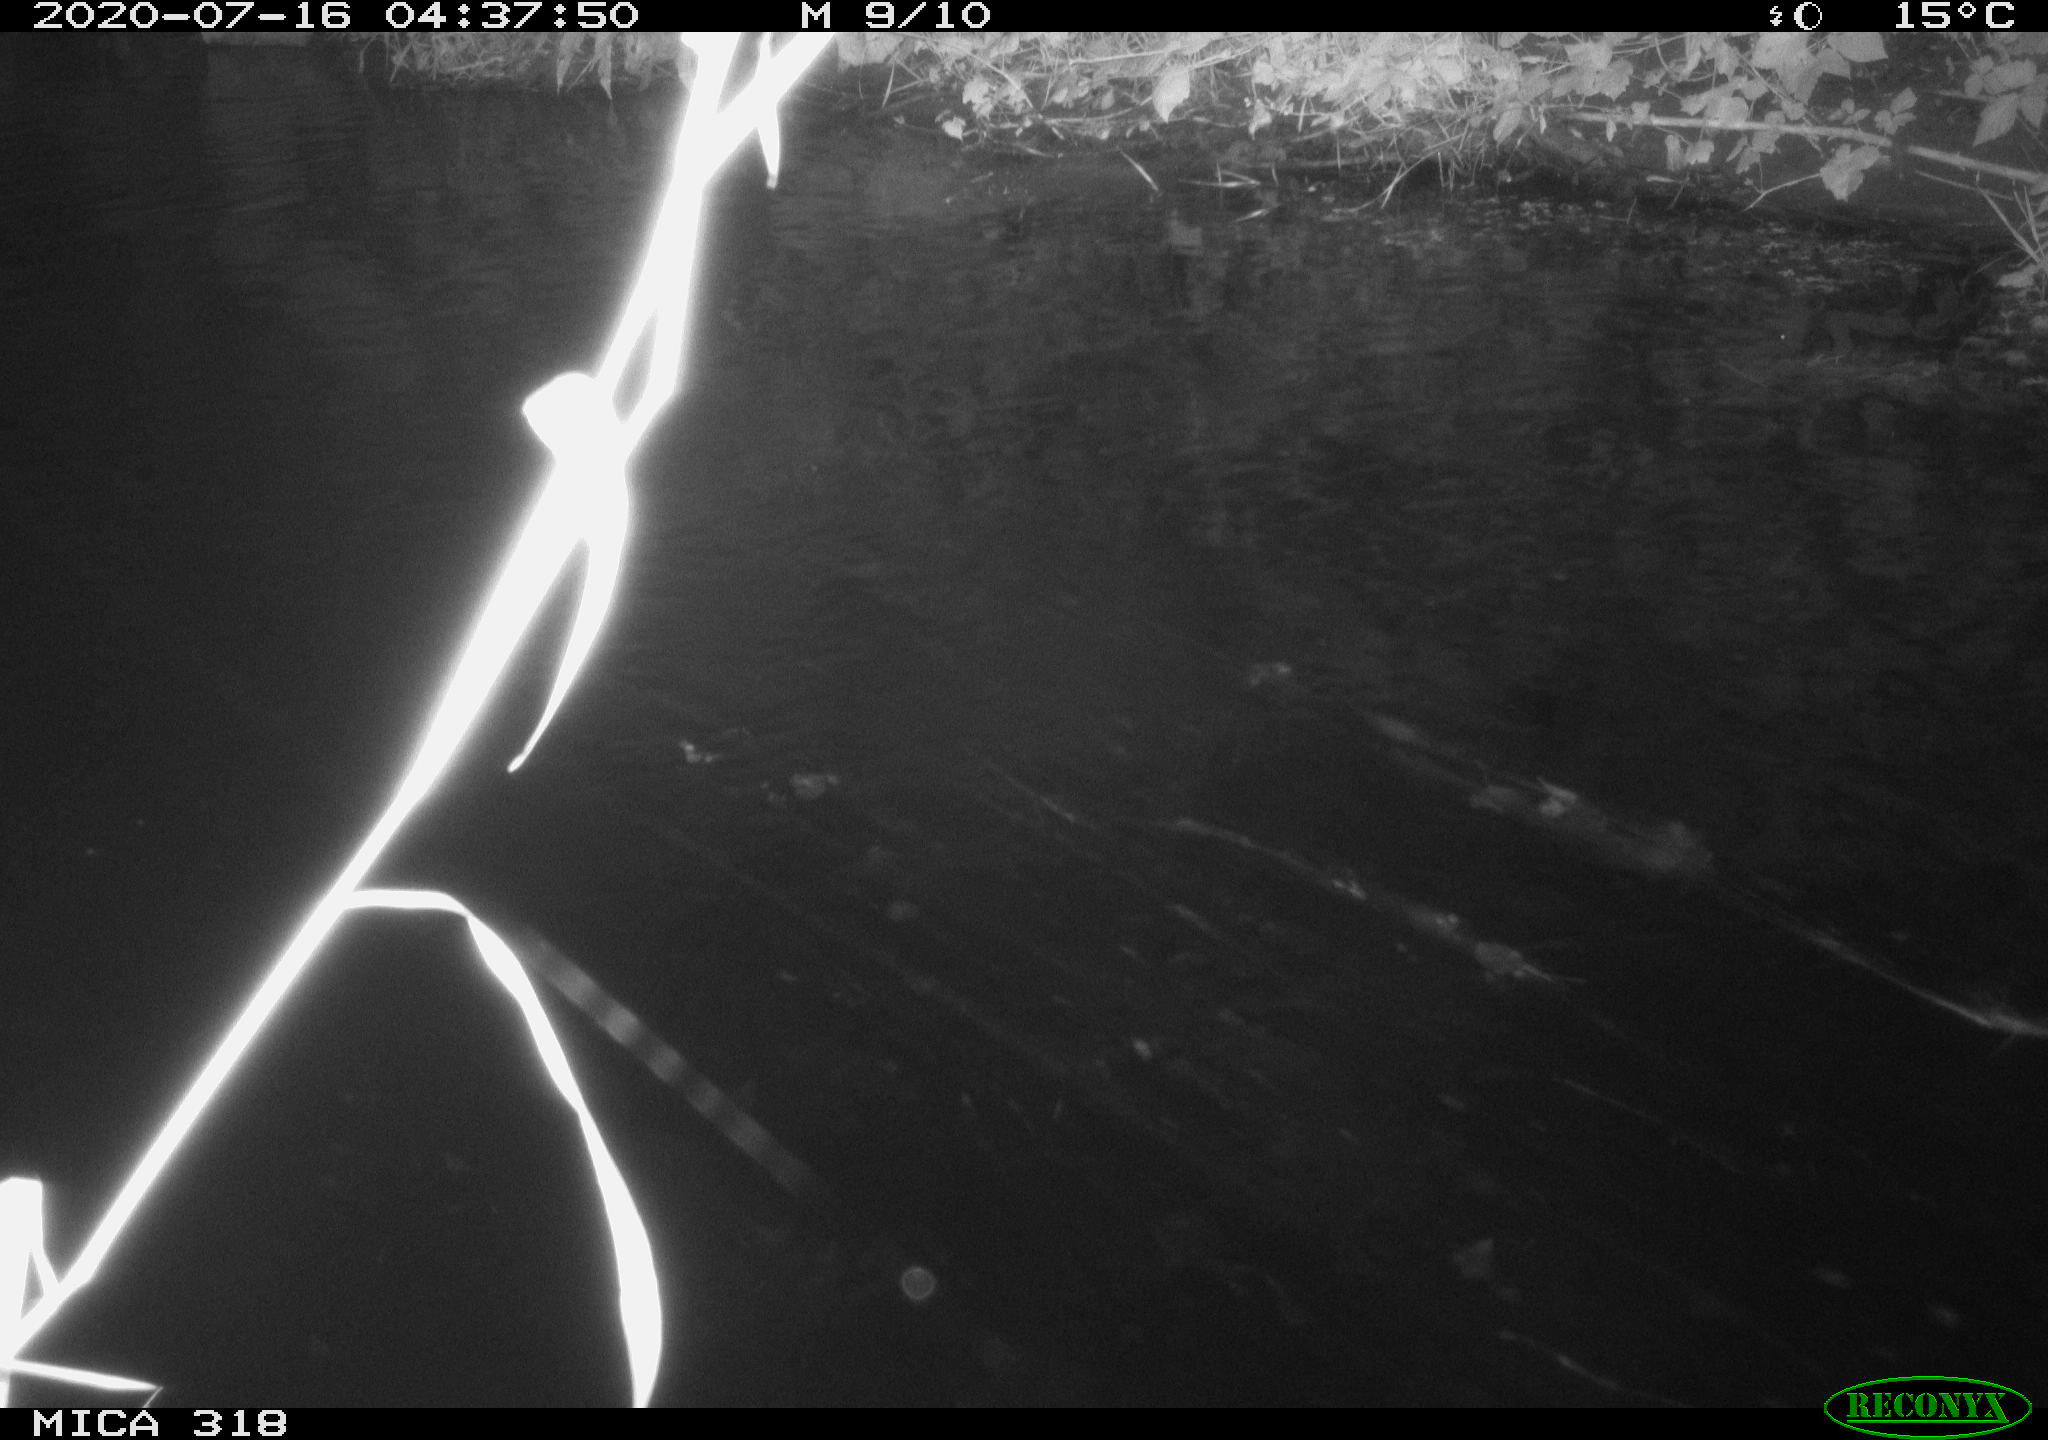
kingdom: Animalia
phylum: Chordata
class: Aves
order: Anseriformes
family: Anatidae
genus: Mareca
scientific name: Mareca strepera
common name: Gadwall
